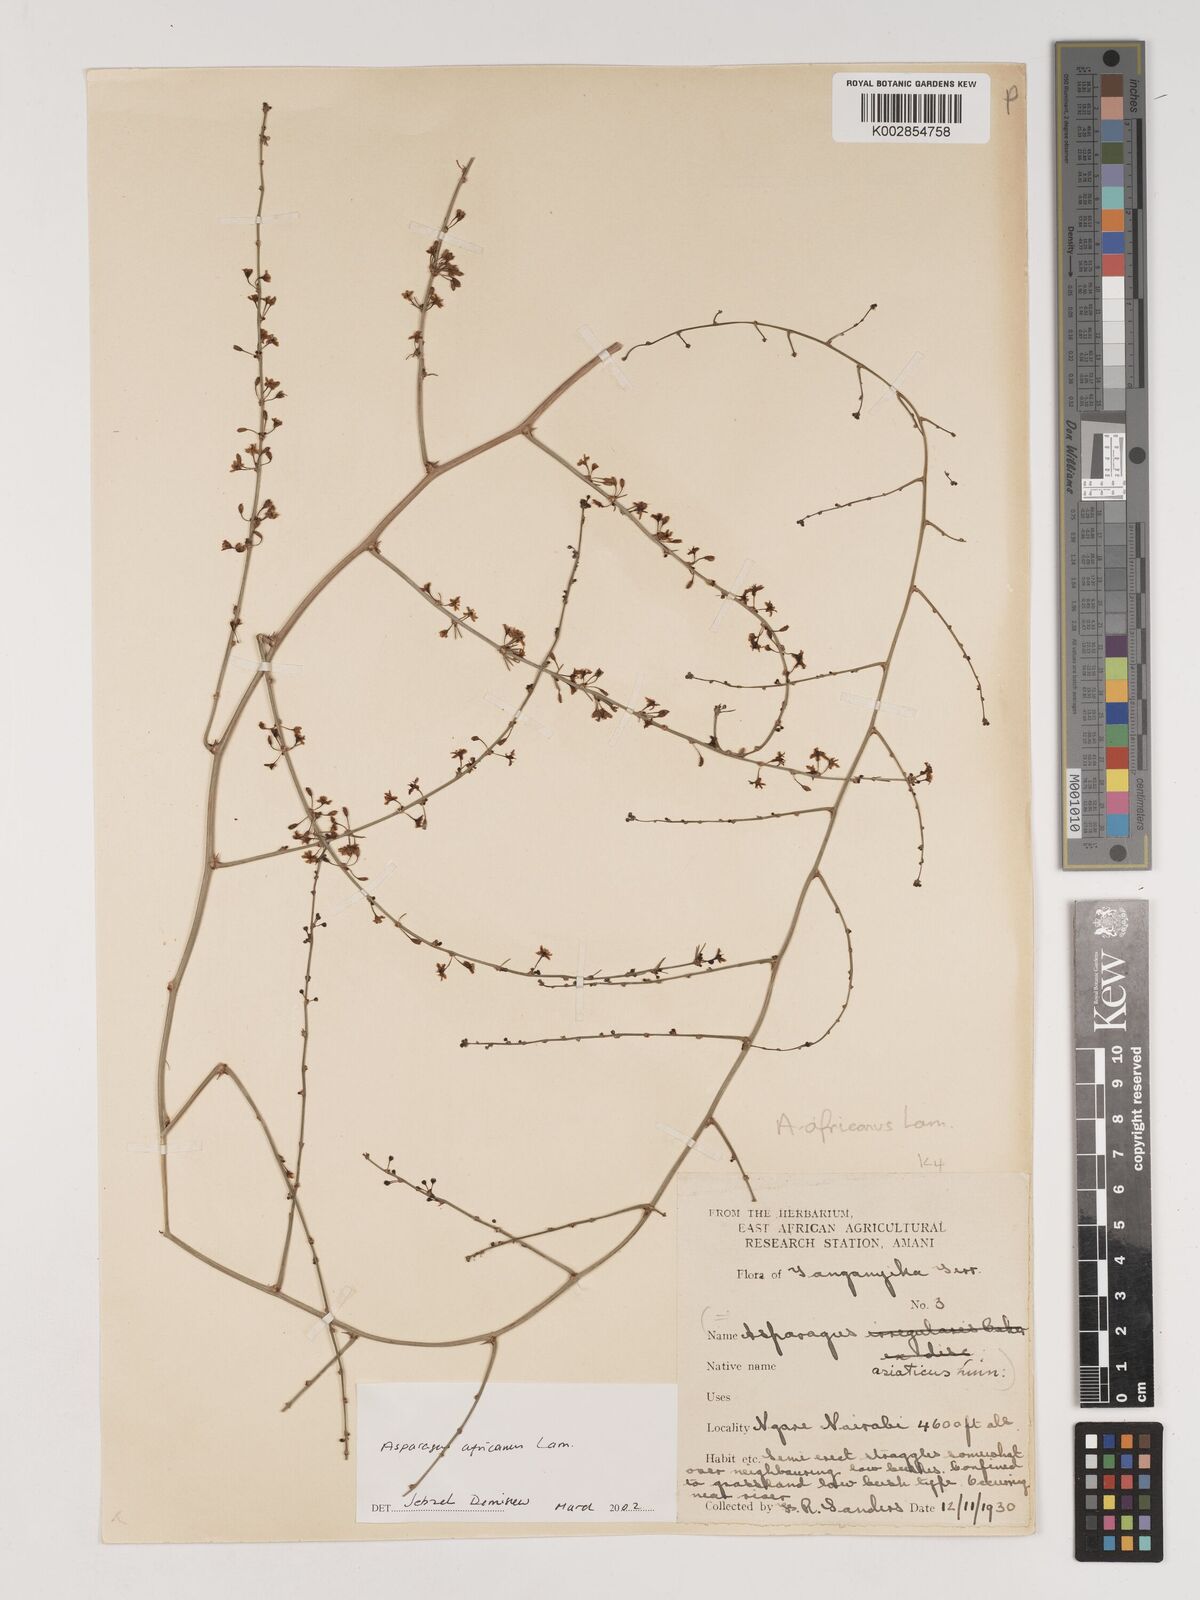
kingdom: Plantae
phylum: Tracheophyta
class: Liliopsida
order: Asparagales
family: Asparagaceae
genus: Asparagus
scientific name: Asparagus africanus
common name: Asparagus-fern
